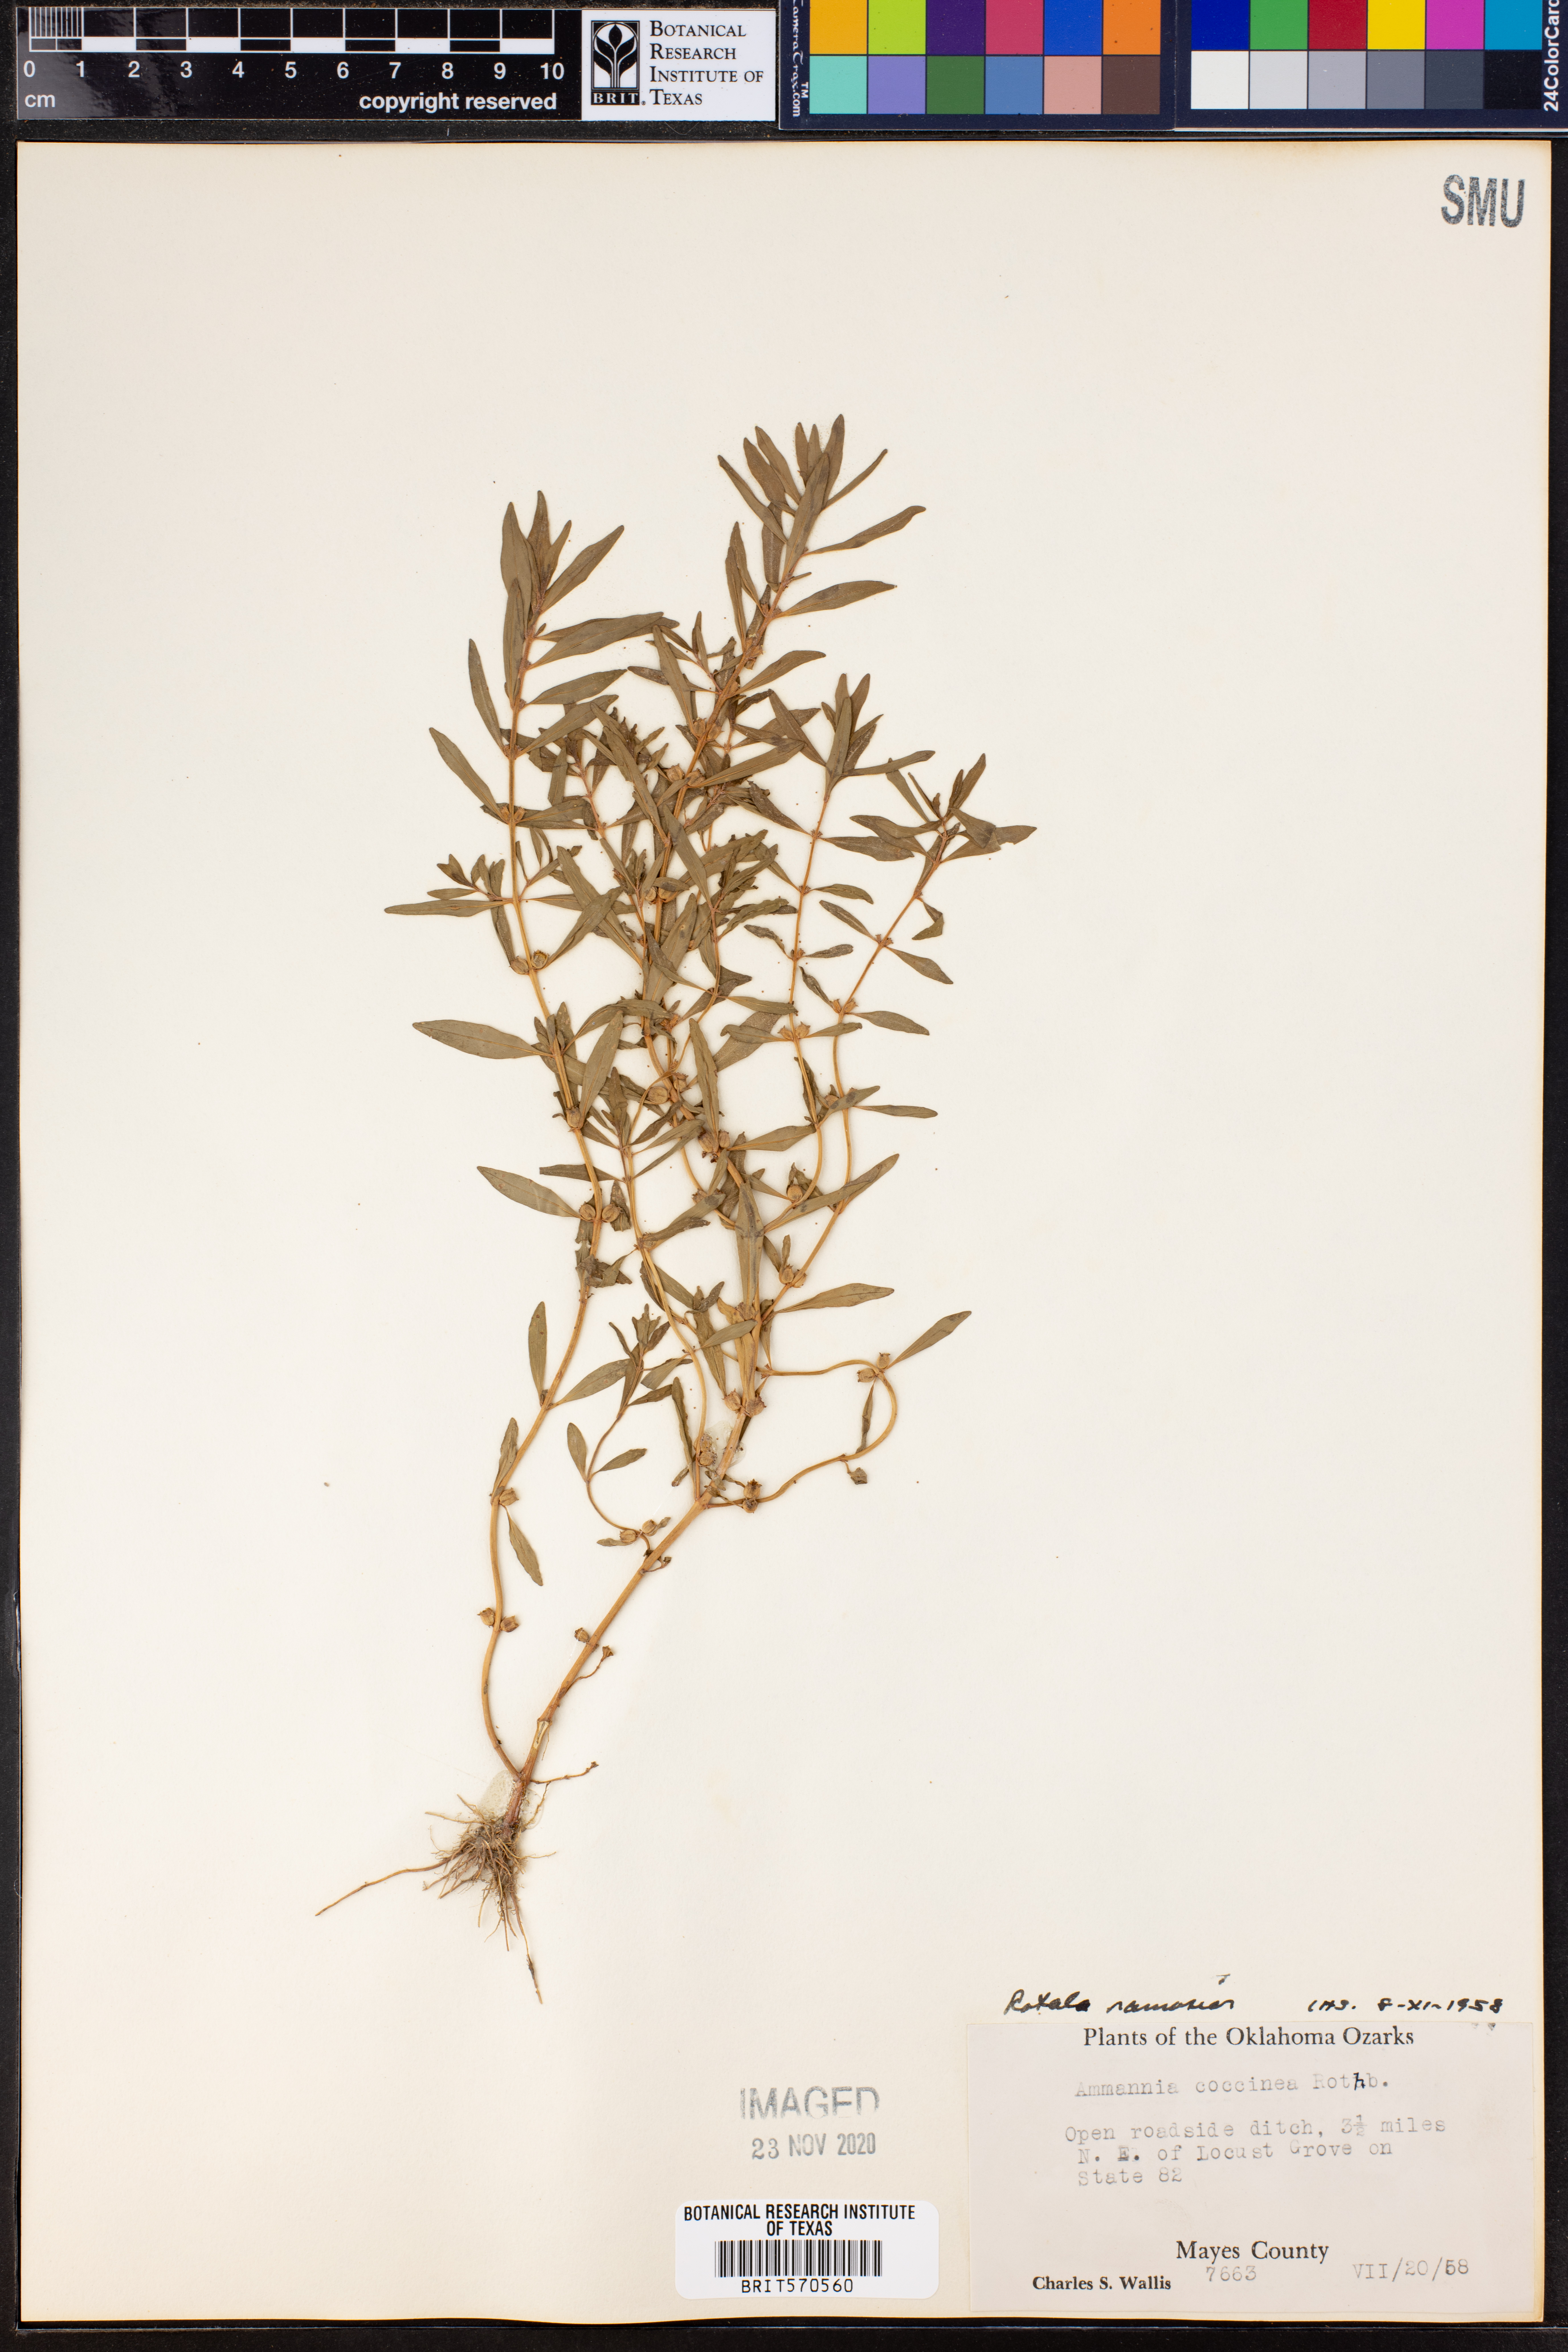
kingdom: Plantae
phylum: Tracheophyta
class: Magnoliopsida
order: Myrtales
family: Lythraceae
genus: Rotala
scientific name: Rotala ramosior
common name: Lowland rotala
